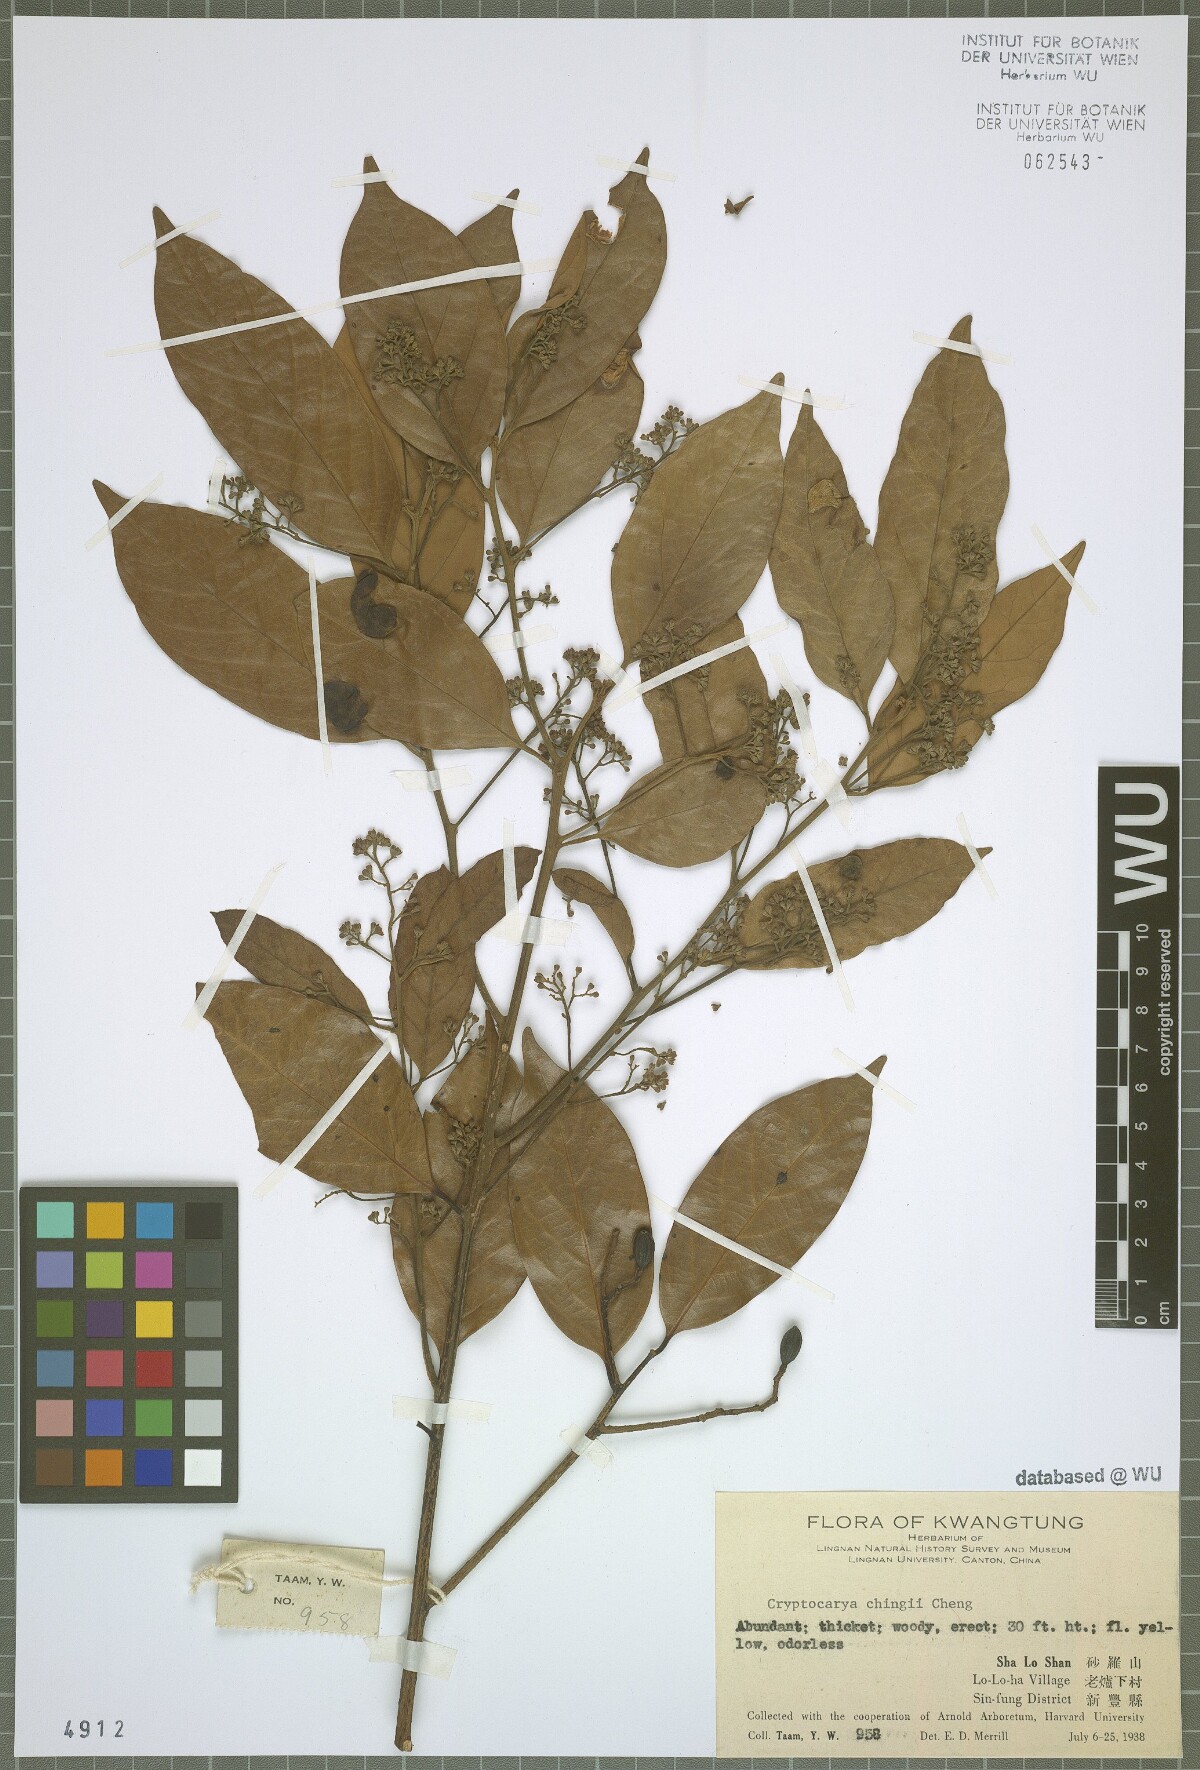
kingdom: Plantae
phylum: Tracheophyta
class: Magnoliopsida
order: Laurales
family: Lauraceae
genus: Cryptocarya
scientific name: Cryptocarya chingii
